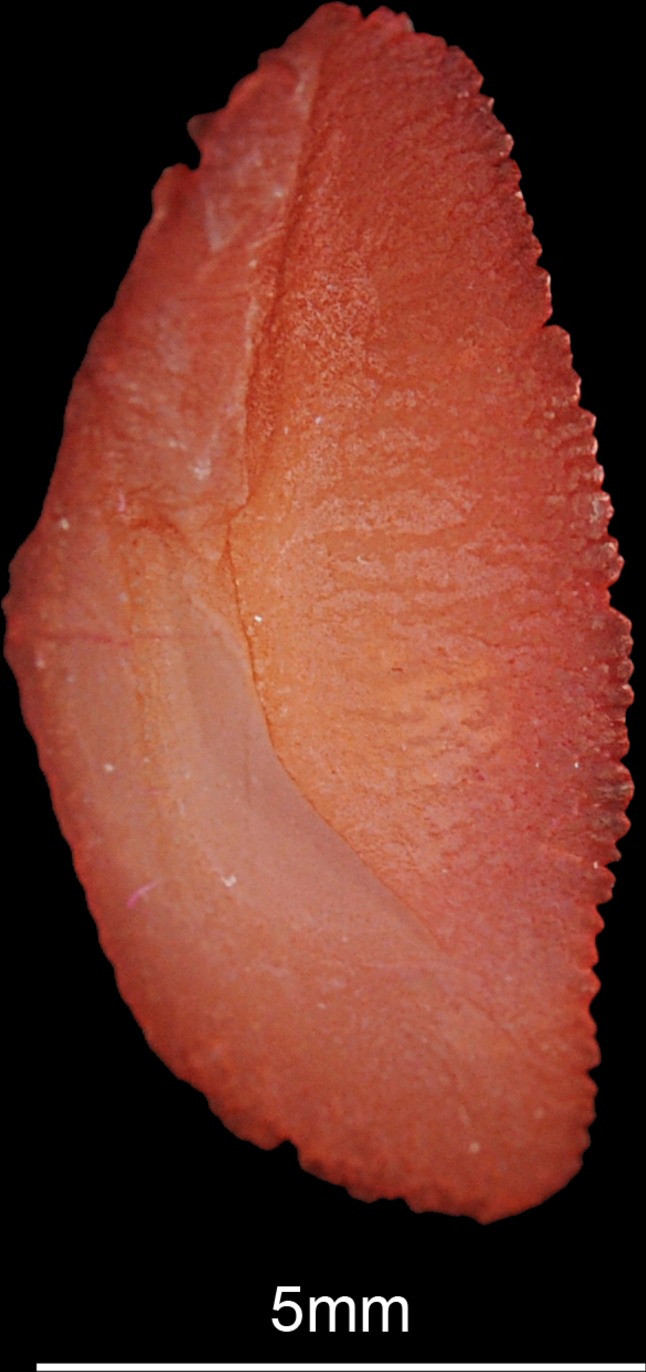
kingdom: Animalia
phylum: Chordata
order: Perciformes
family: Sparidae
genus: Pachymetopon
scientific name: Pachymetopon grande
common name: Bronze bream
